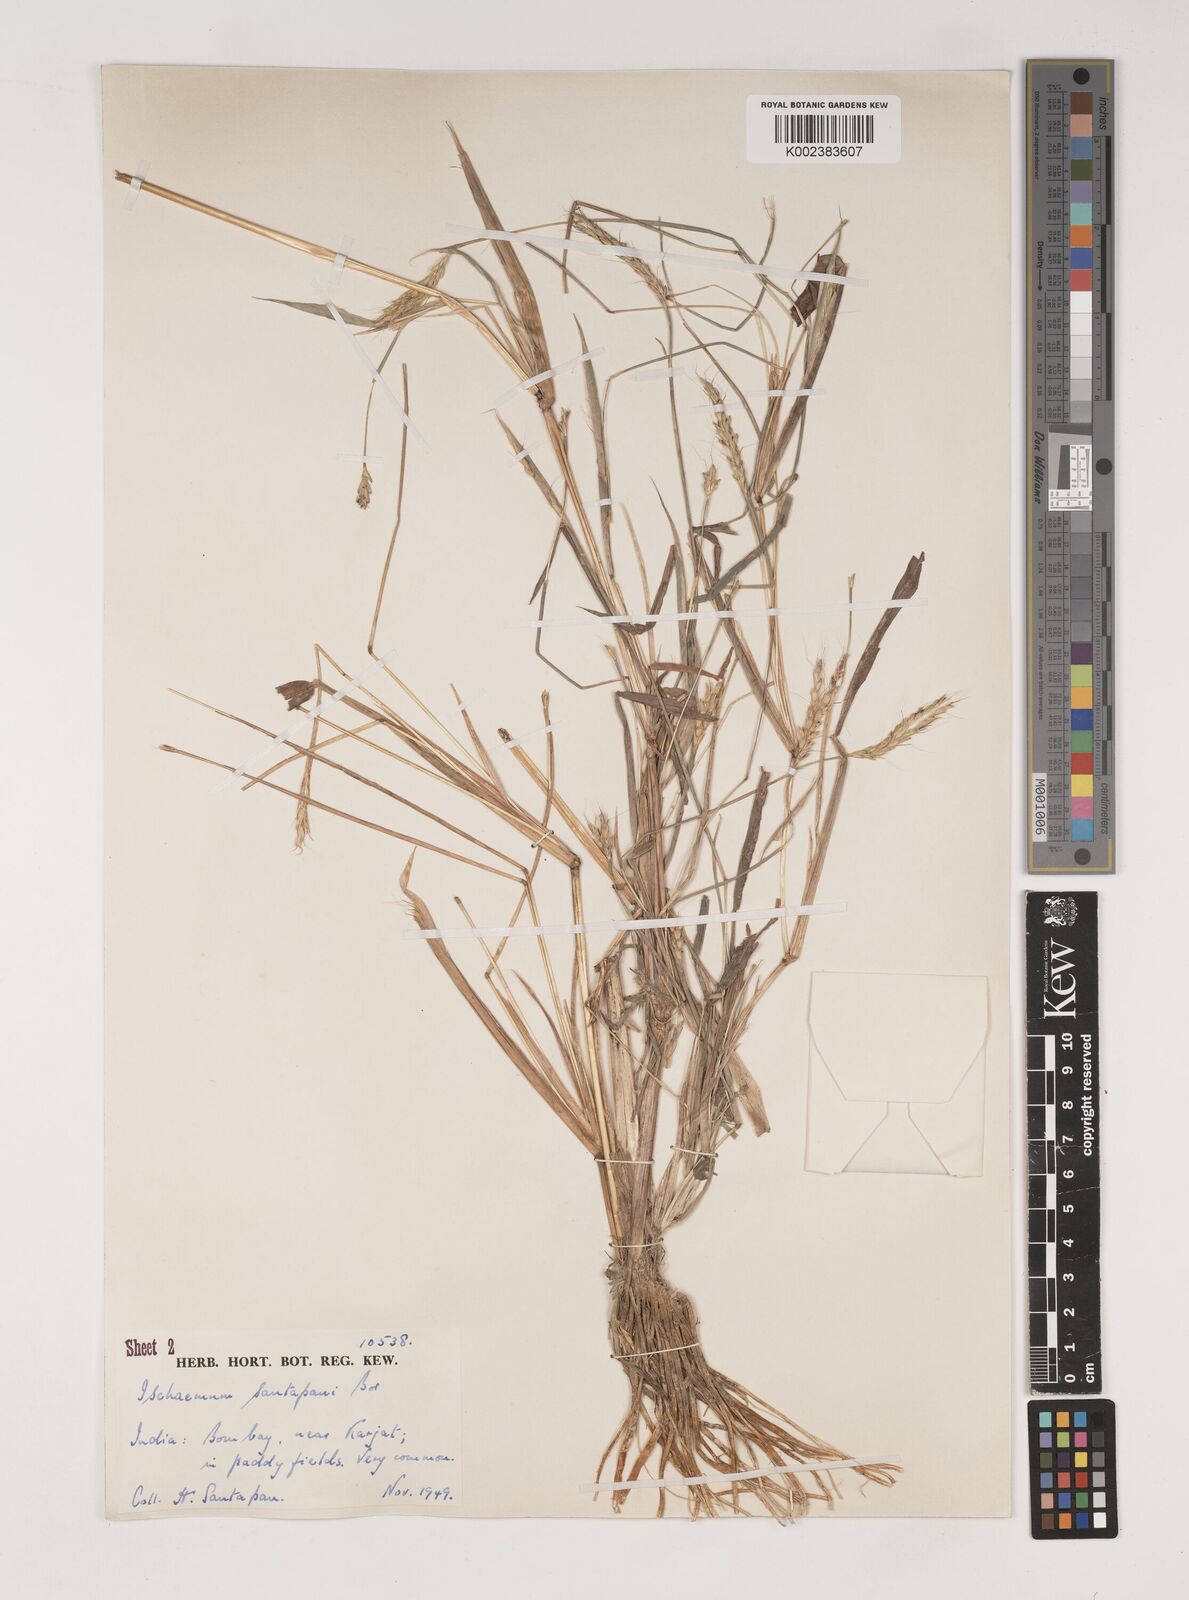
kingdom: Plantae
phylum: Tracheophyta
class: Liliopsida
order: Poales
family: Poaceae
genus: Ischaemum
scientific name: Ischaemum santapaui
